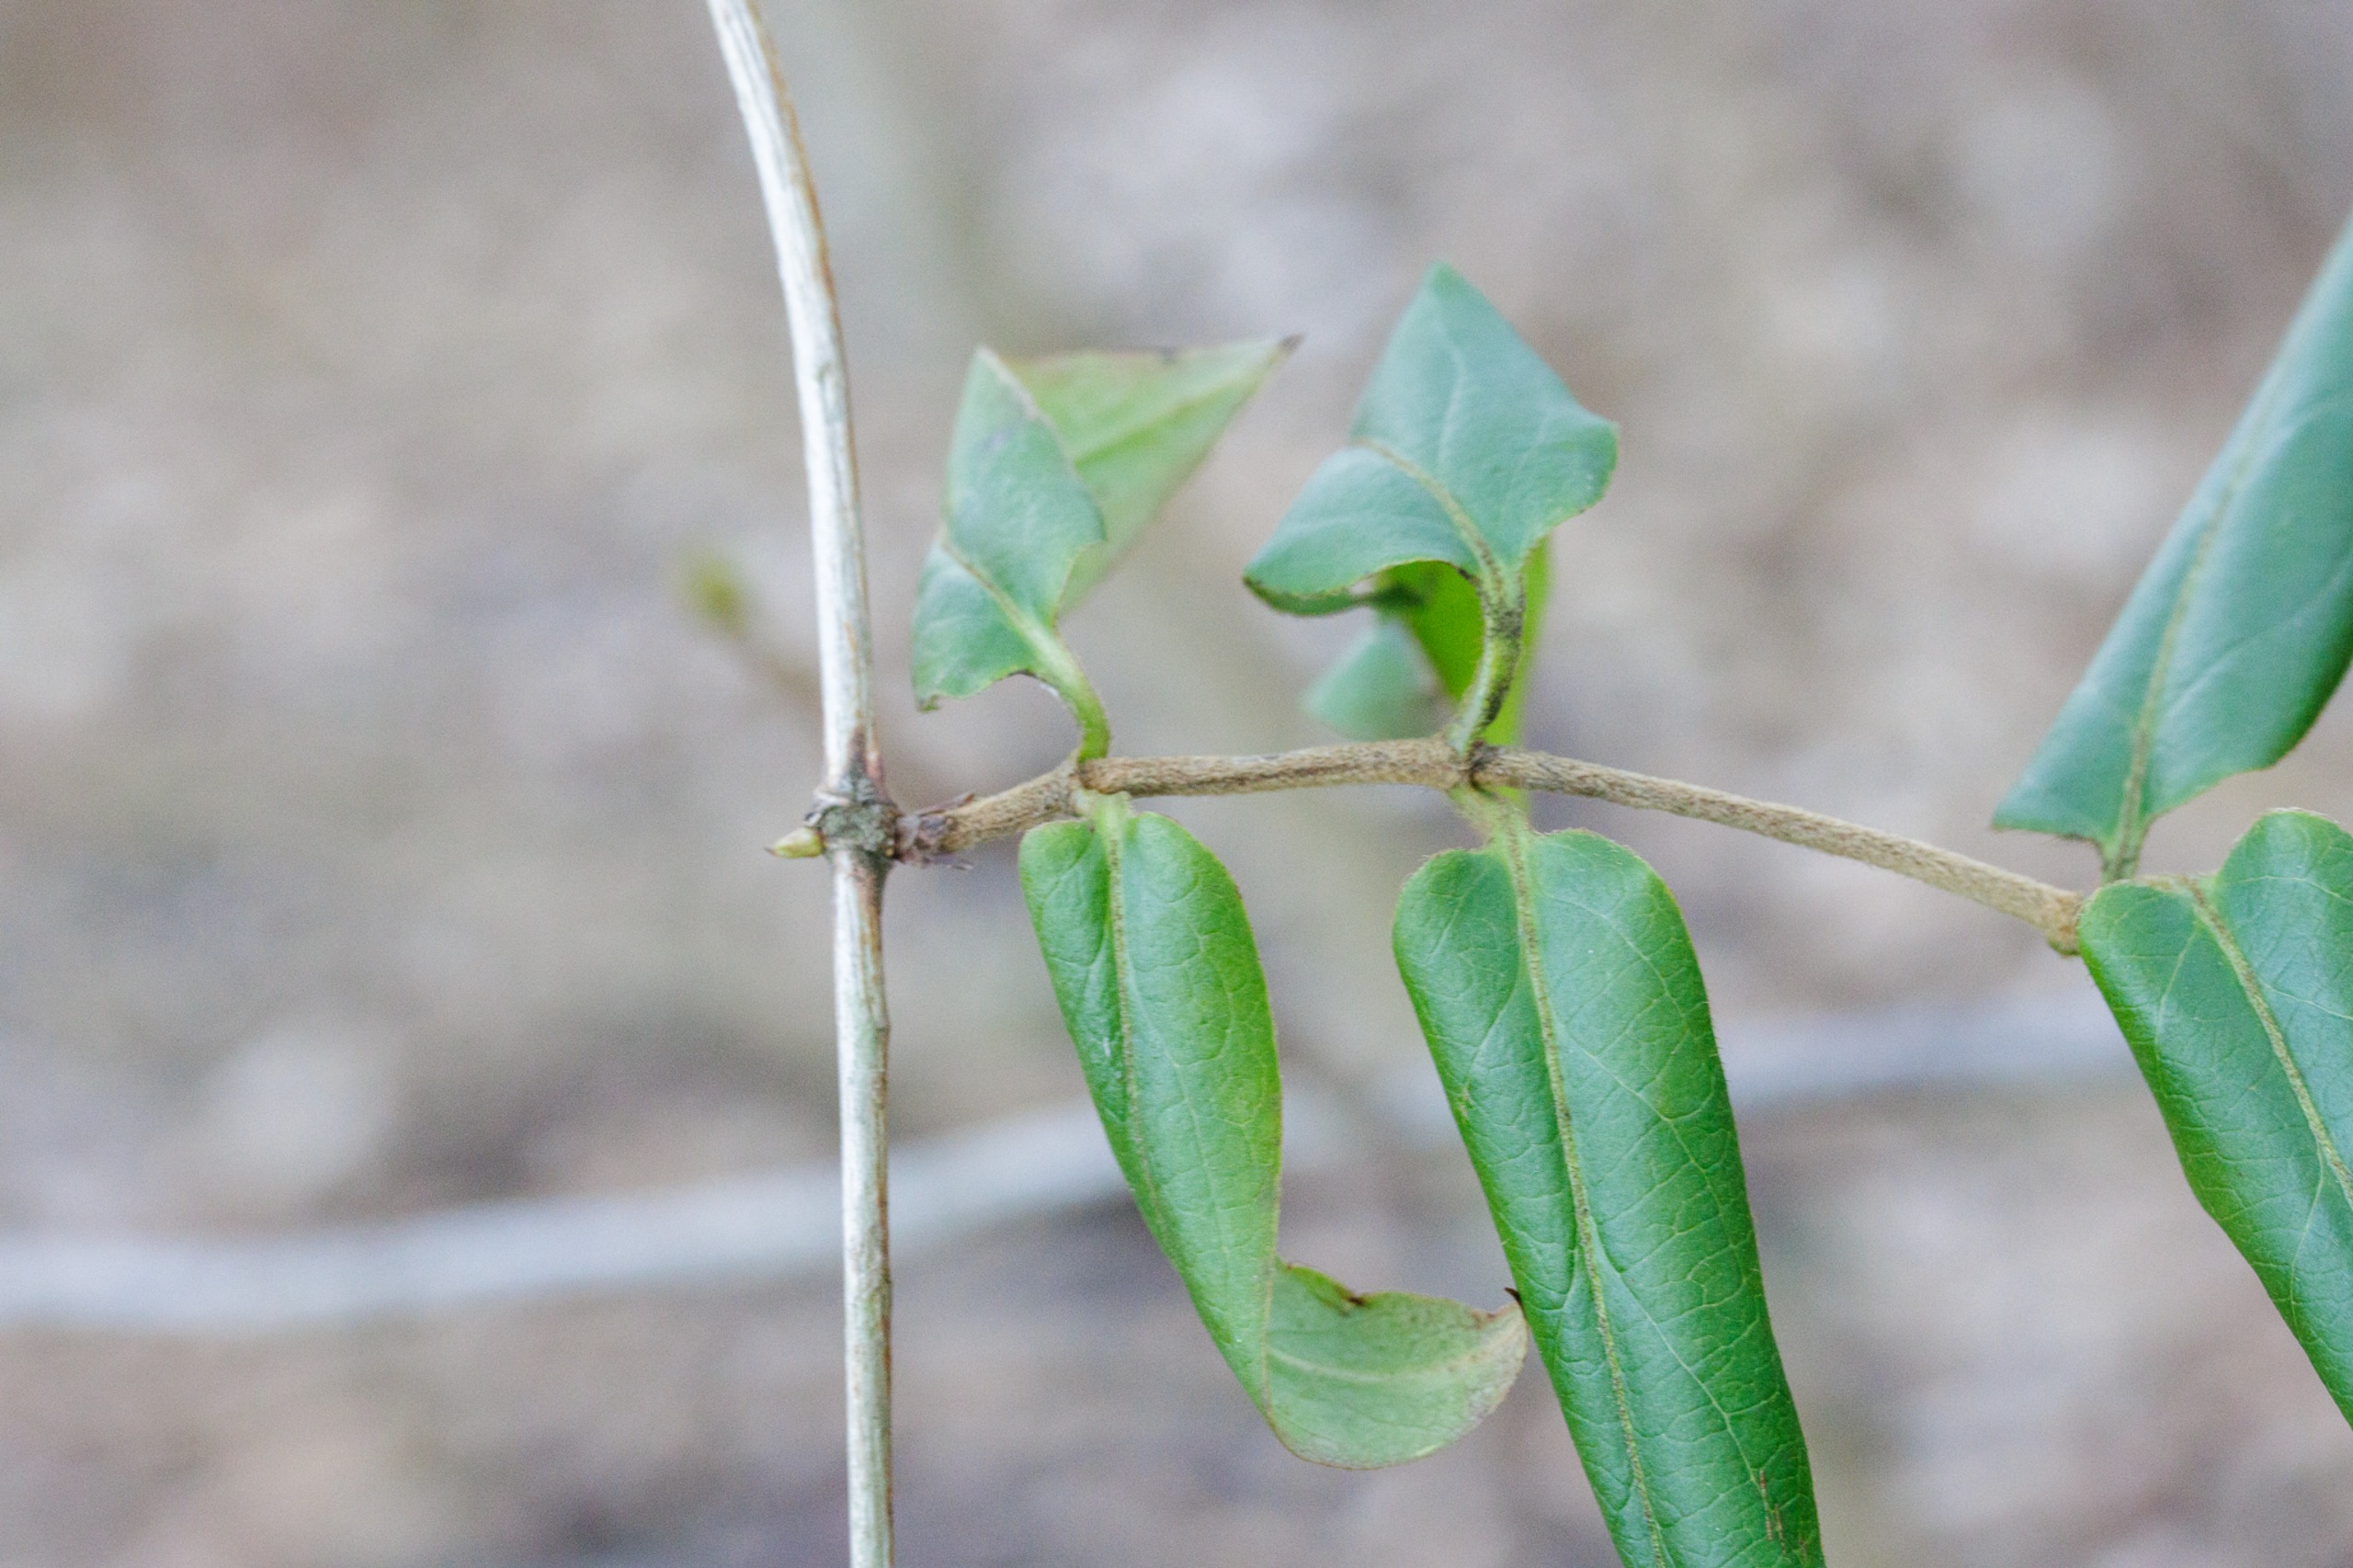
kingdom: Plantae
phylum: Tracheophyta
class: Magnoliopsida
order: Dipsacales
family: Caprifoliaceae
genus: Lonicera
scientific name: Lonicera acuminata
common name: Henrys gedeblad
